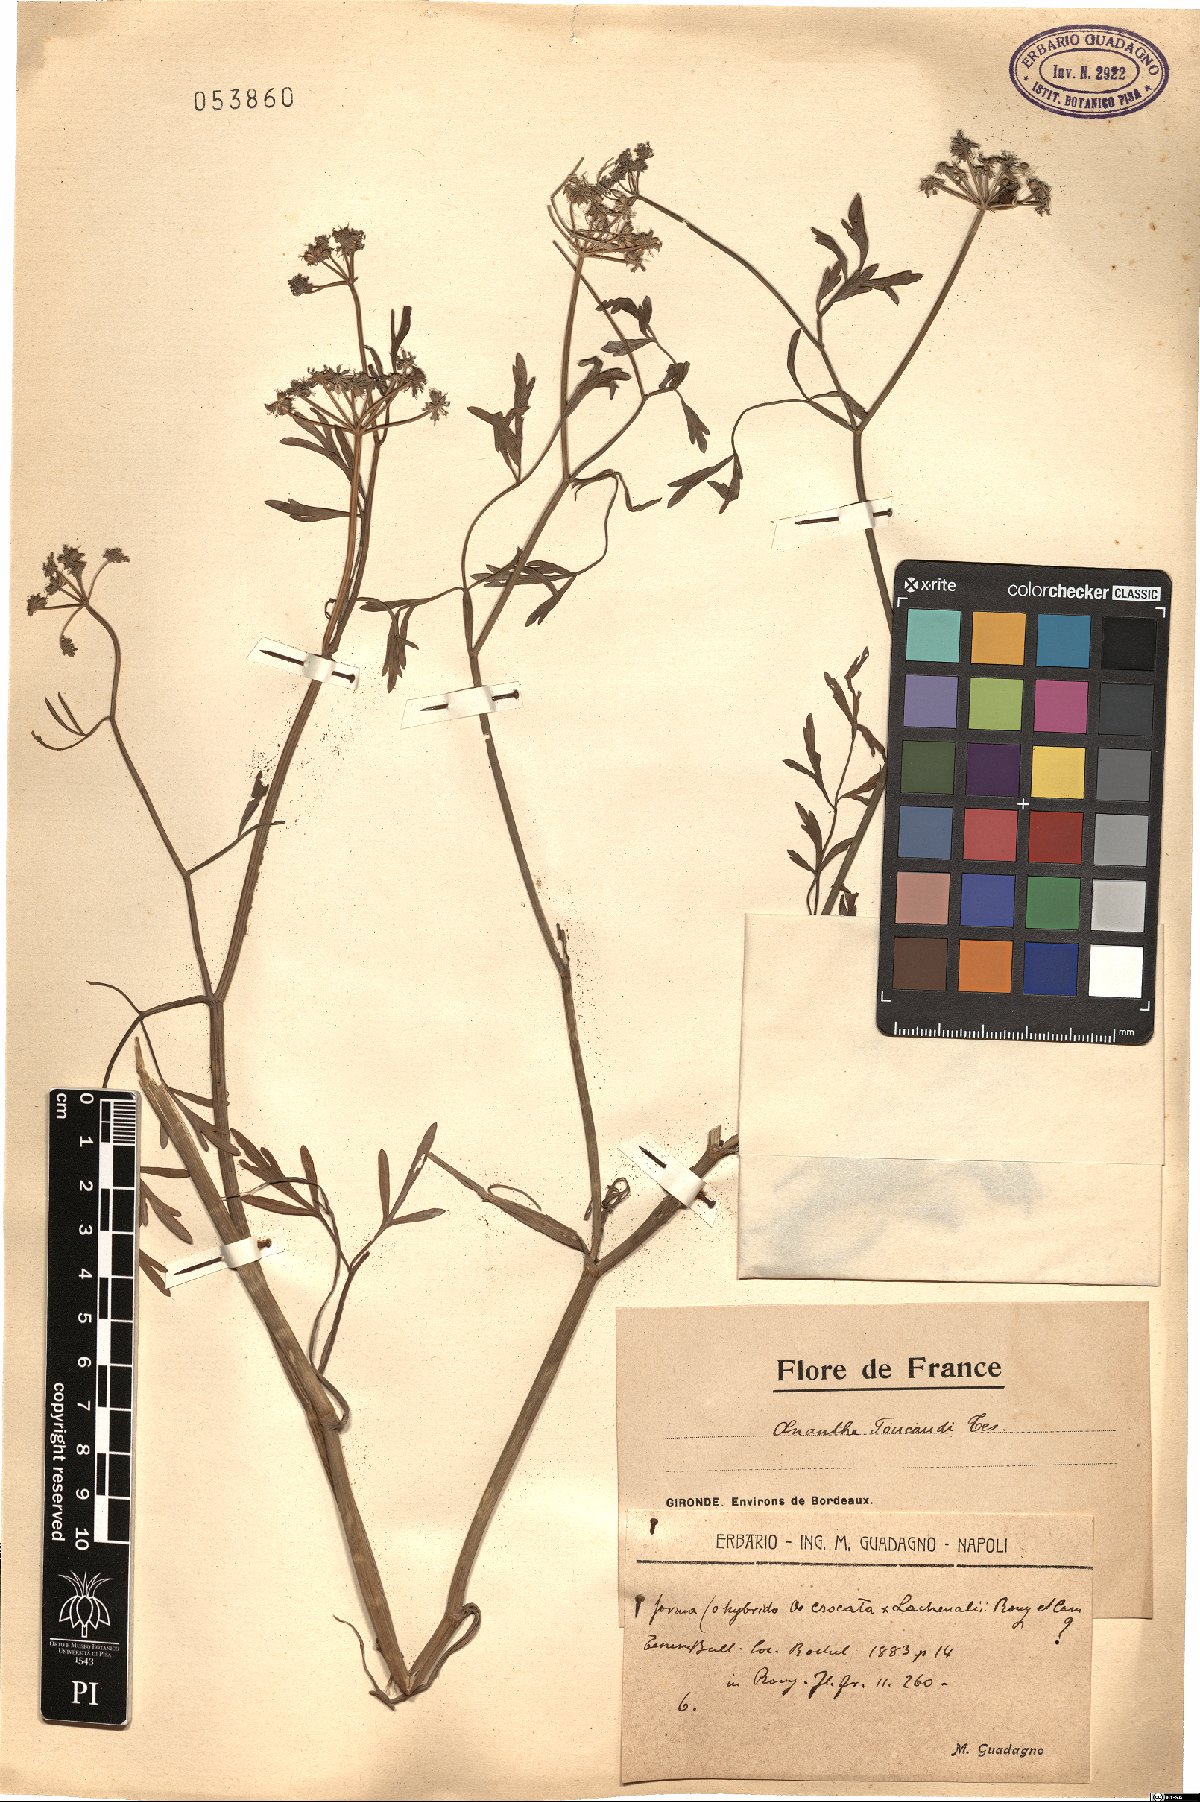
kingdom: Plantae
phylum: Tracheophyta
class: Magnoliopsida
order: Apiales
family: Apiaceae
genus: Oenanthe
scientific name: Oenanthe lachenalii
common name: Parsley water-dropwort
